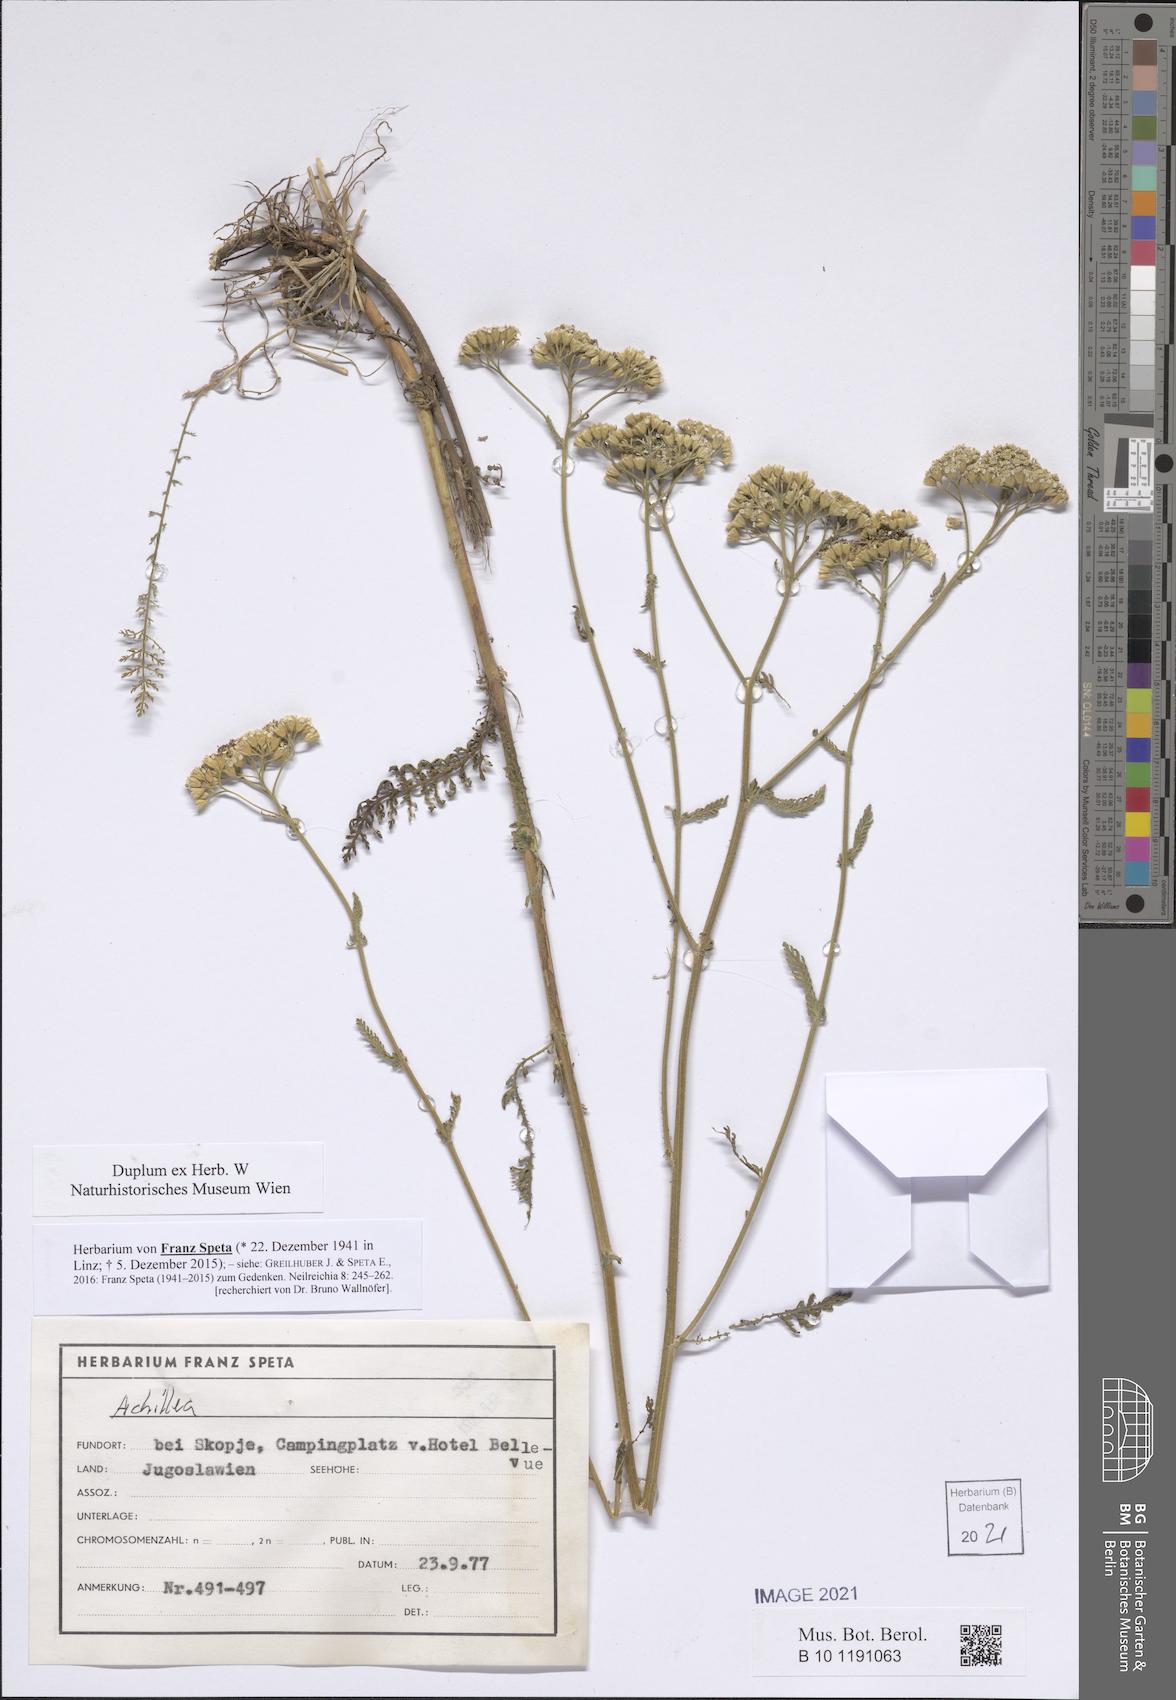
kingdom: Plantae
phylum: Tracheophyta
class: Magnoliopsida
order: Asterales
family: Asteraceae
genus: Achillea
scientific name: Achillea
